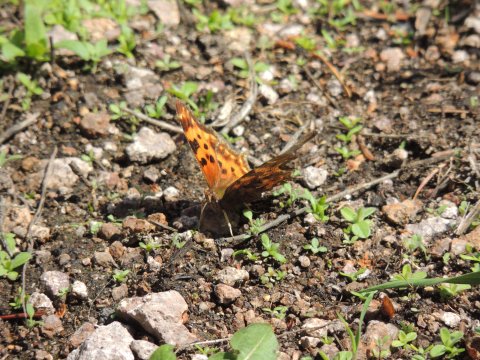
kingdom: Animalia
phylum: Arthropoda
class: Insecta
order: Lepidoptera
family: Nymphalidae
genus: Polygonia
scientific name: Polygonia satyrus
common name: Satyr Comma
